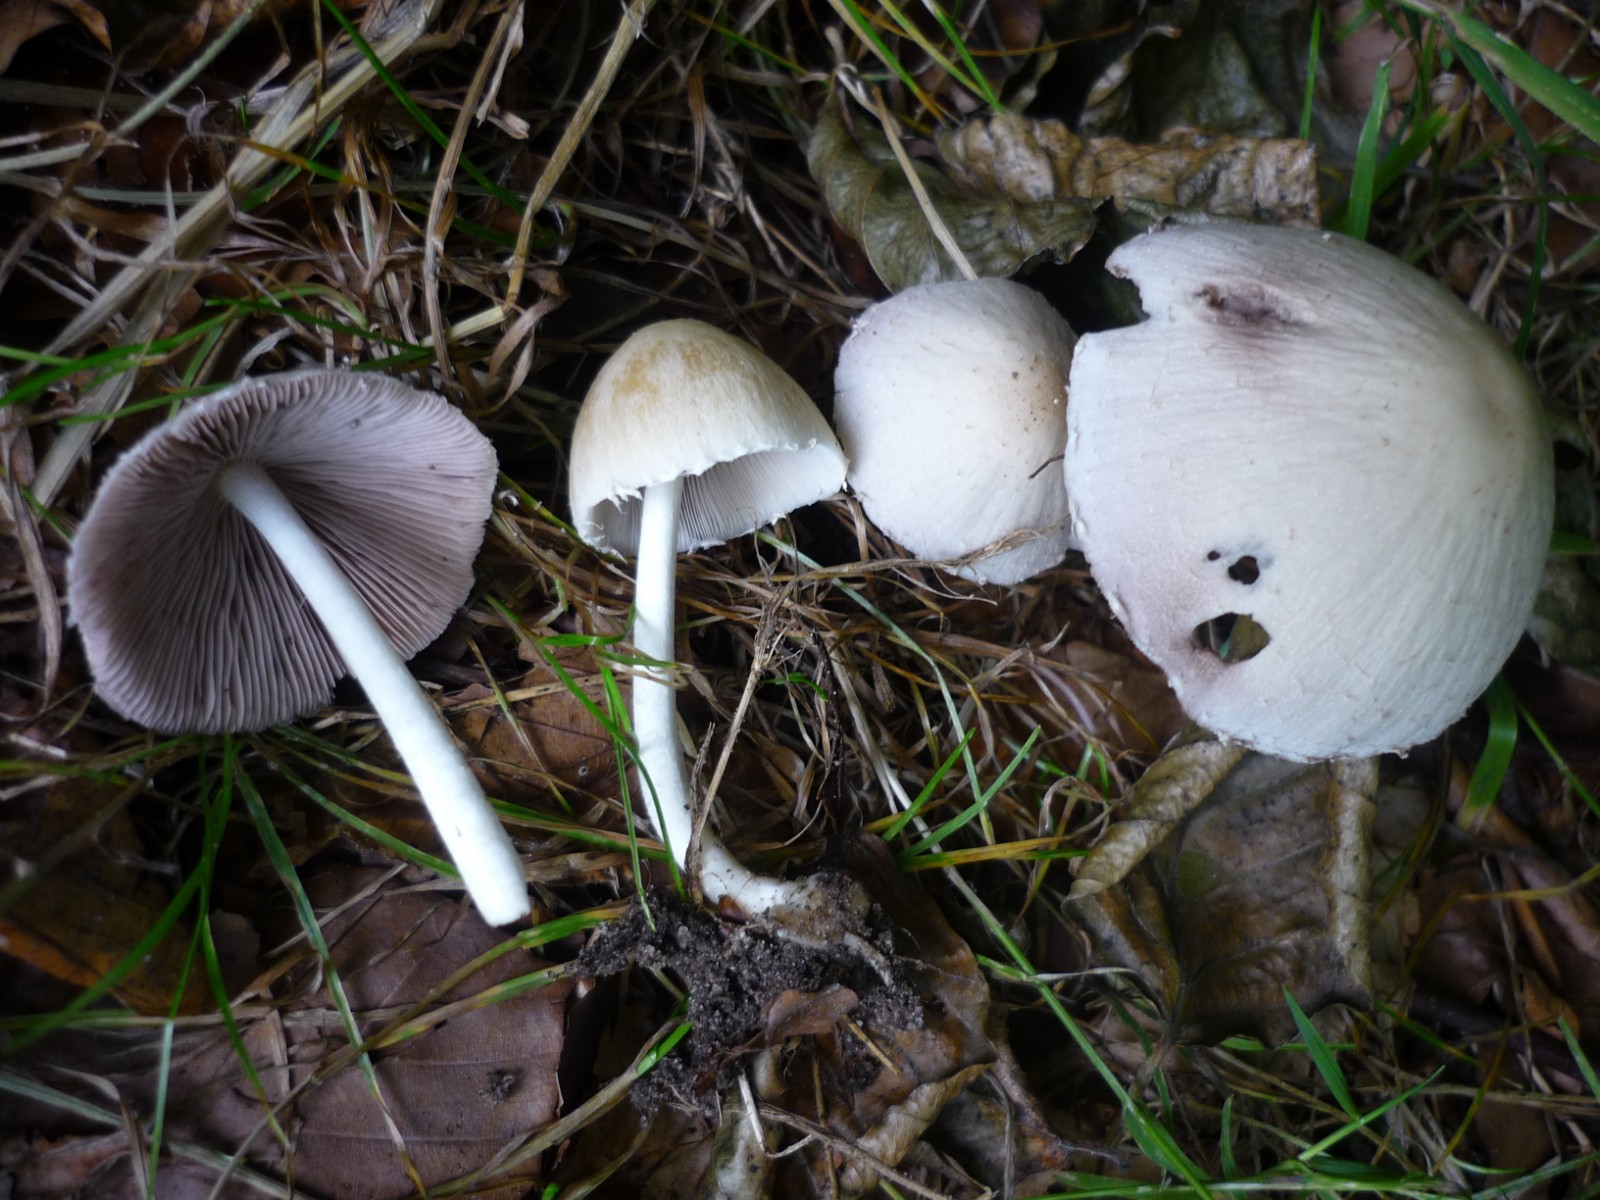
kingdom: Fungi
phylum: Basidiomycota
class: Agaricomycetes
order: Agaricales
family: Psathyrellaceae
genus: Candolleomyces
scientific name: Candolleomyces candolleanus
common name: Candolles mørkhat
